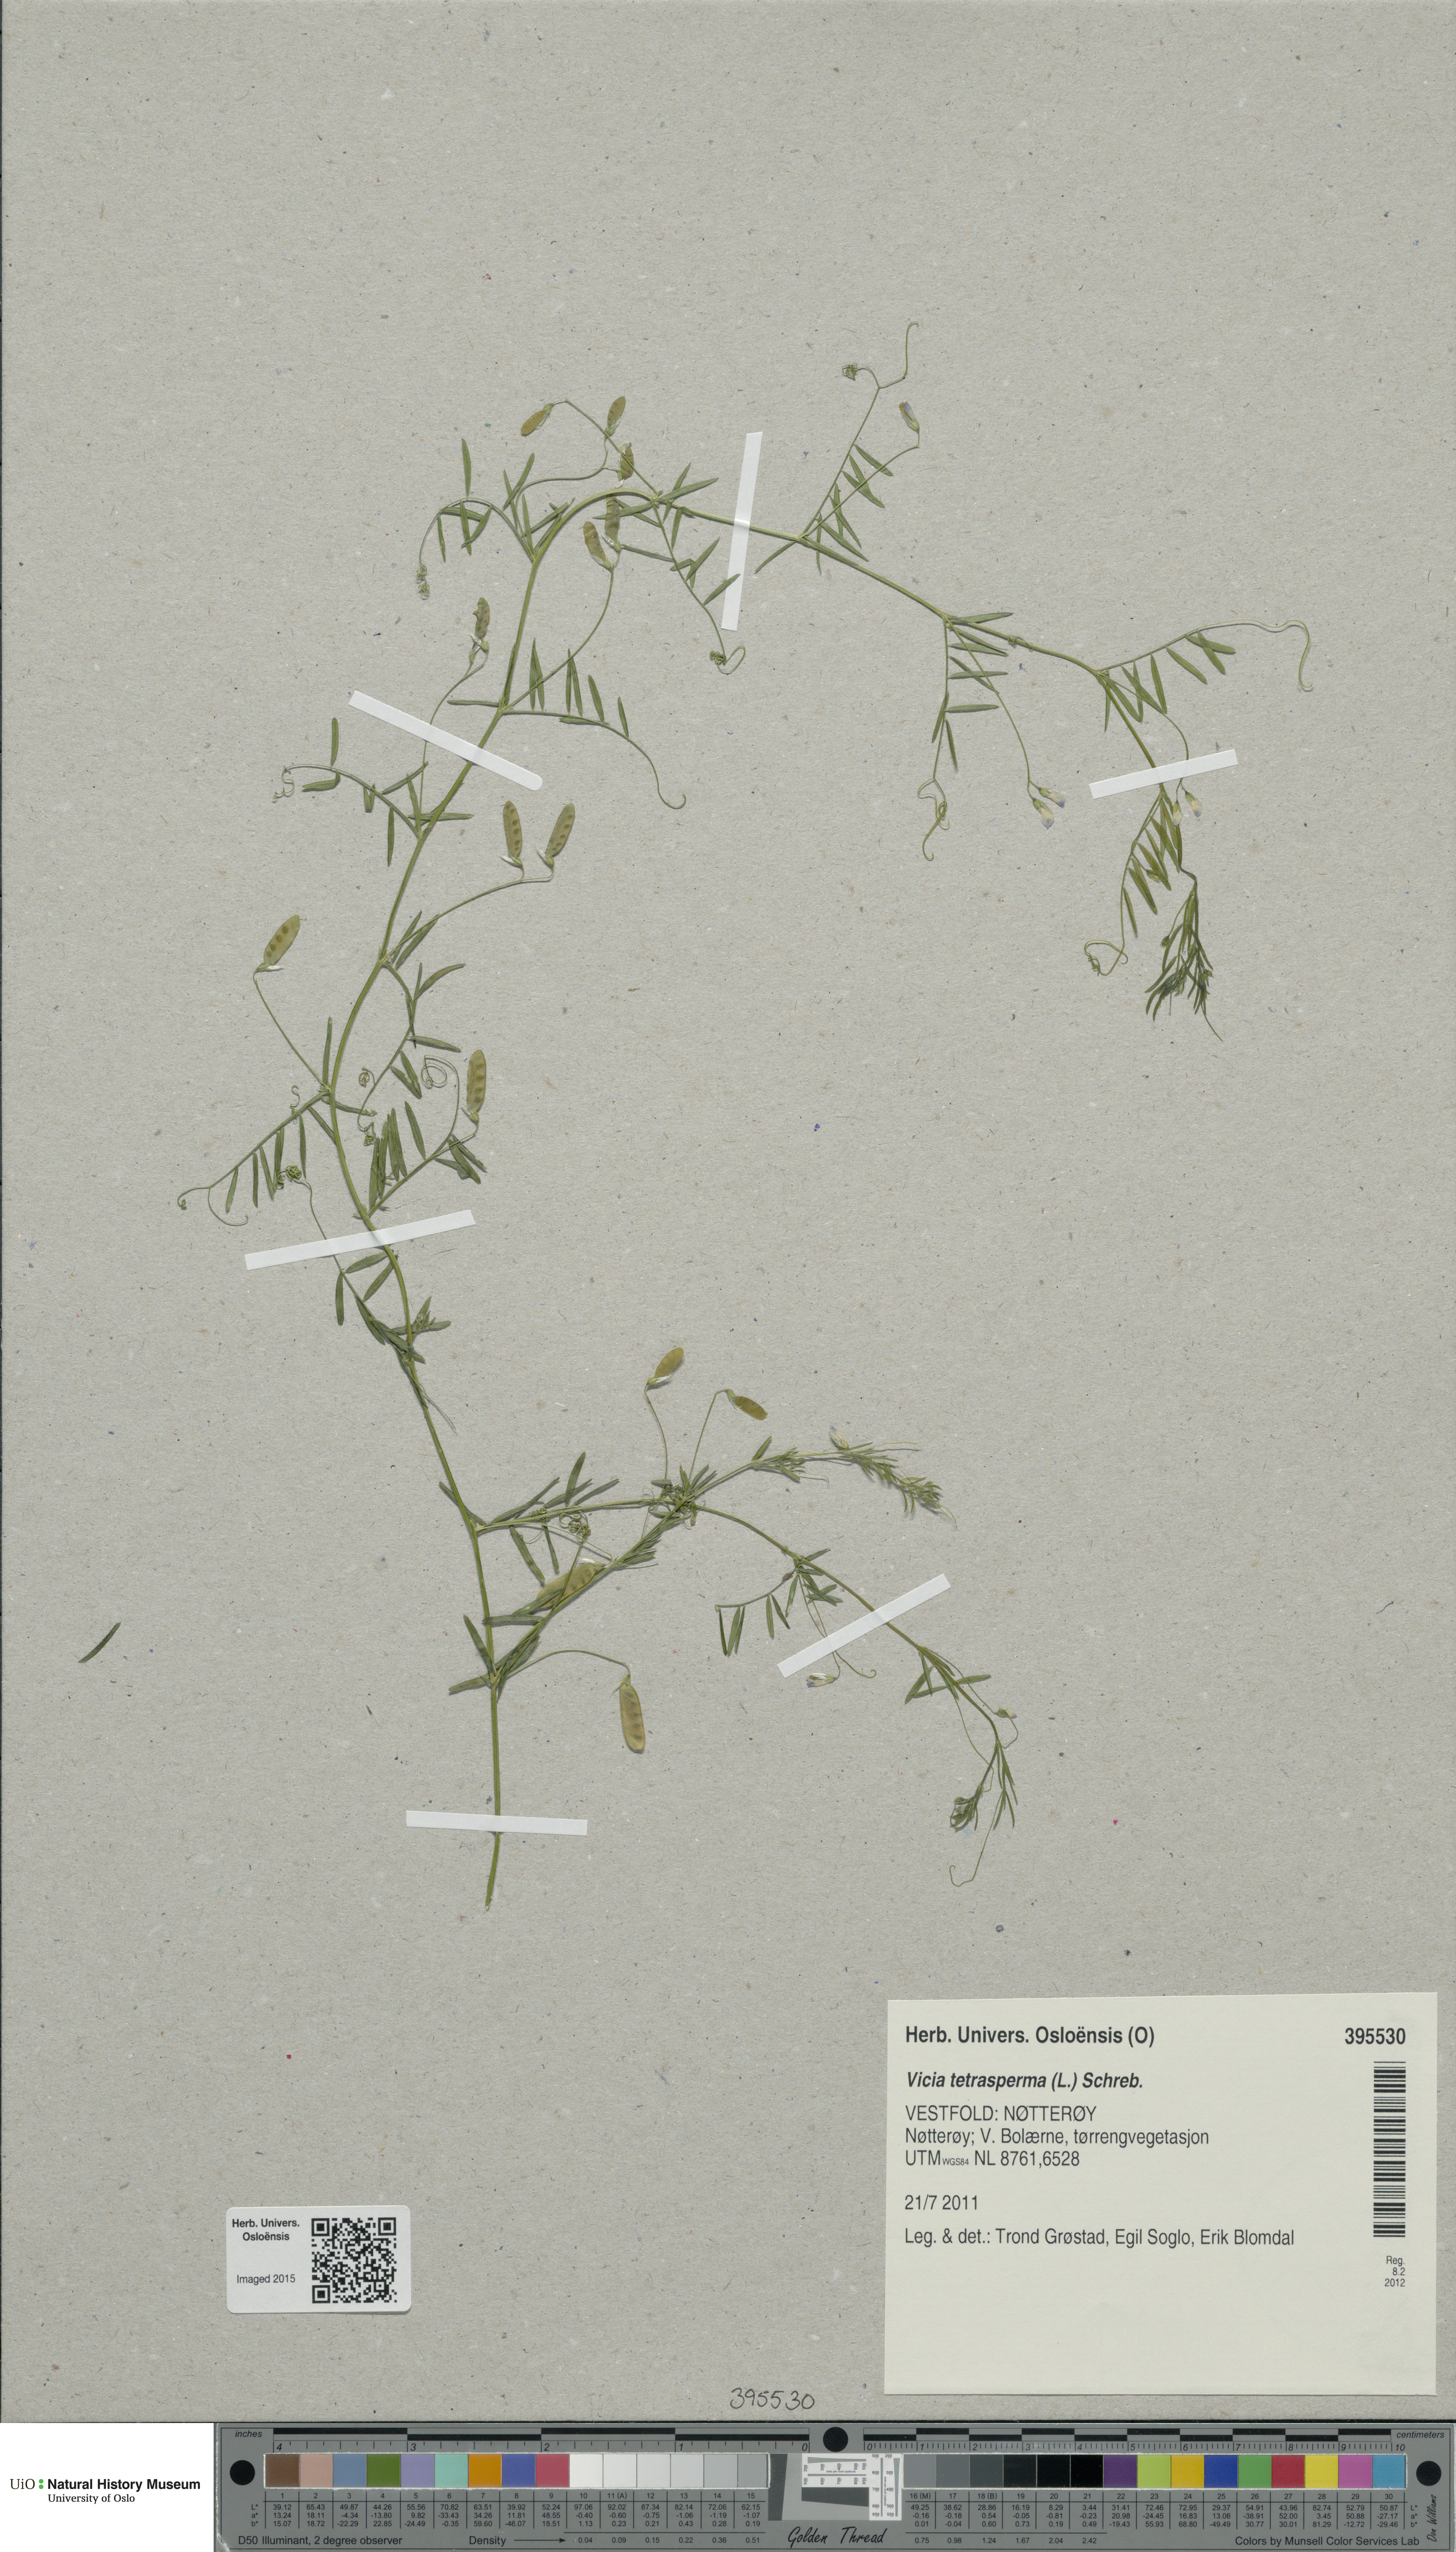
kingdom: Plantae
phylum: Tracheophyta
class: Magnoliopsida
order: Fabales
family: Fabaceae
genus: Vicia
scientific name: Vicia tetrasperma
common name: Smooth tare
